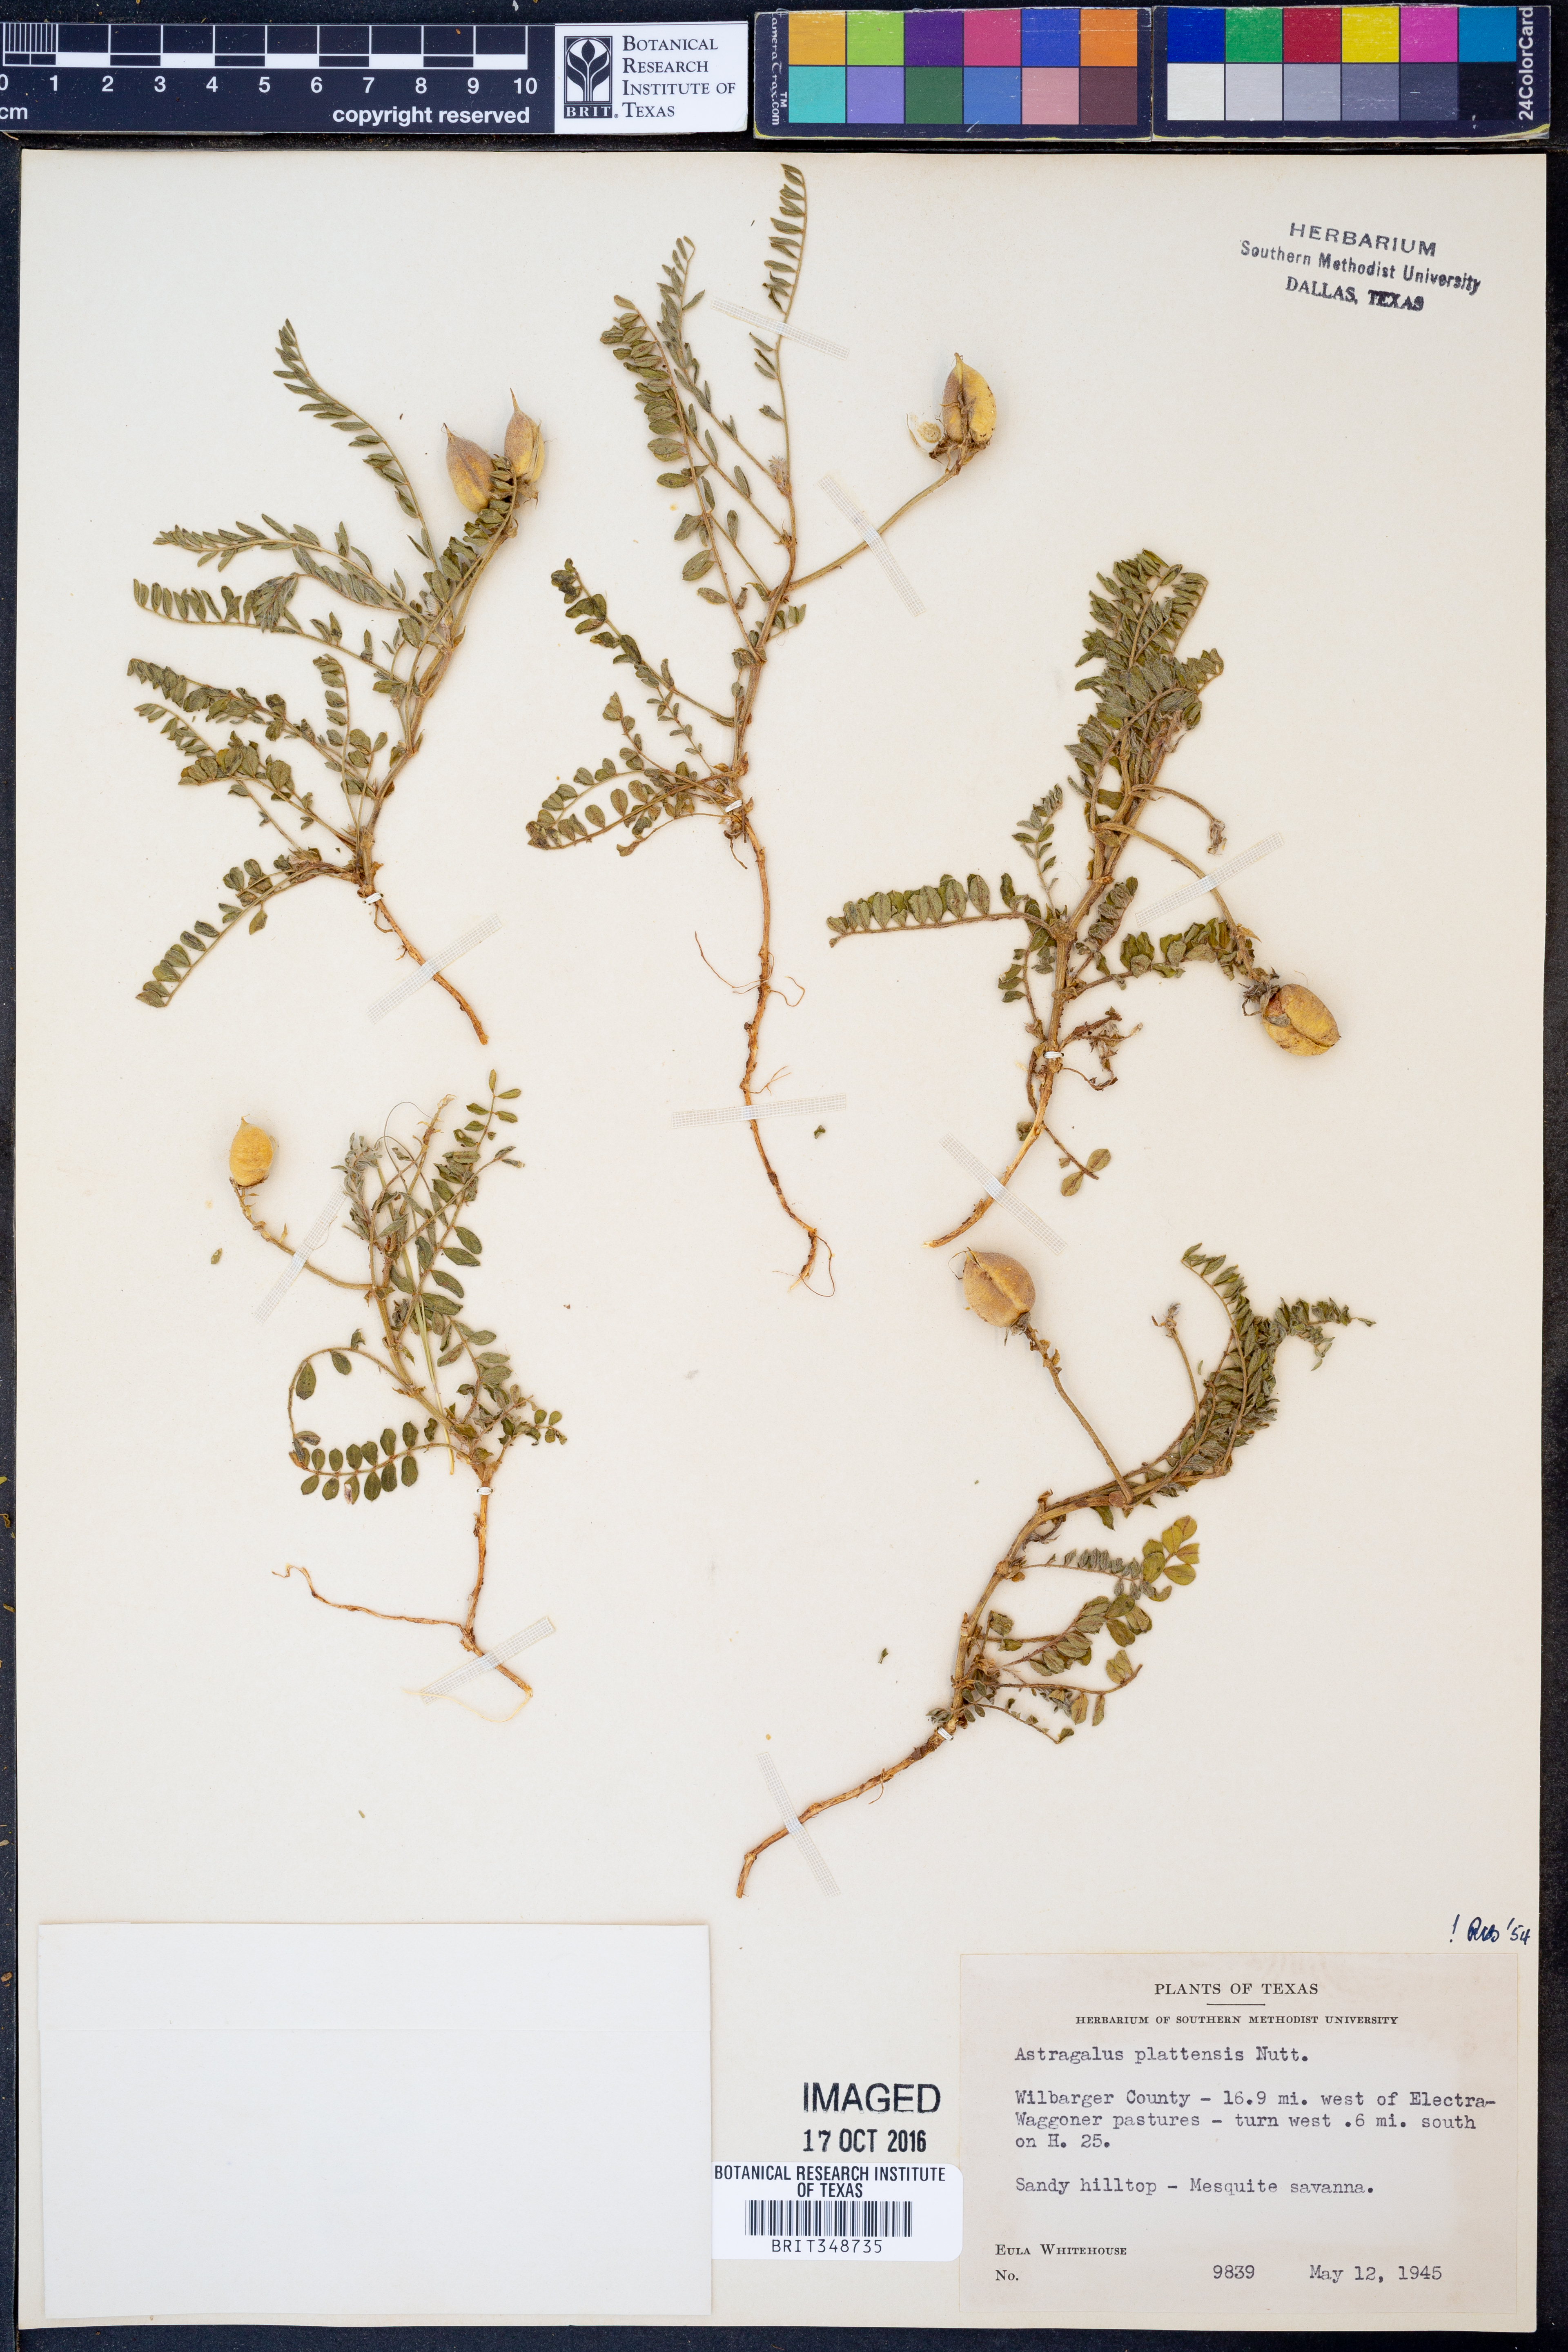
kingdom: Plantae
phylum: Tracheophyta
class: Magnoliopsida
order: Fabales
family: Fabaceae
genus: Astragalus
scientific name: Astragalus plattensis
